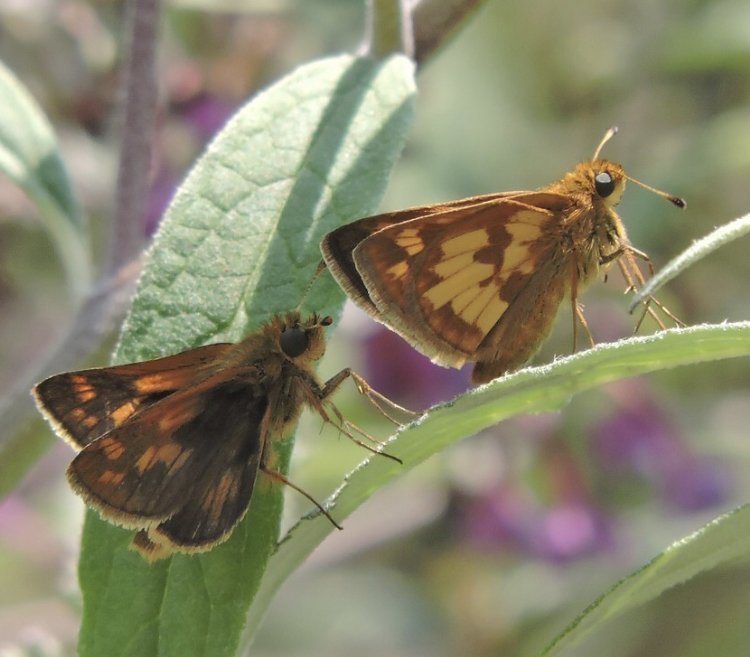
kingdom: Animalia
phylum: Arthropoda
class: Insecta
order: Lepidoptera
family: Hesperiidae
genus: Polites
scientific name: Polites coras
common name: Peck's Skipper
